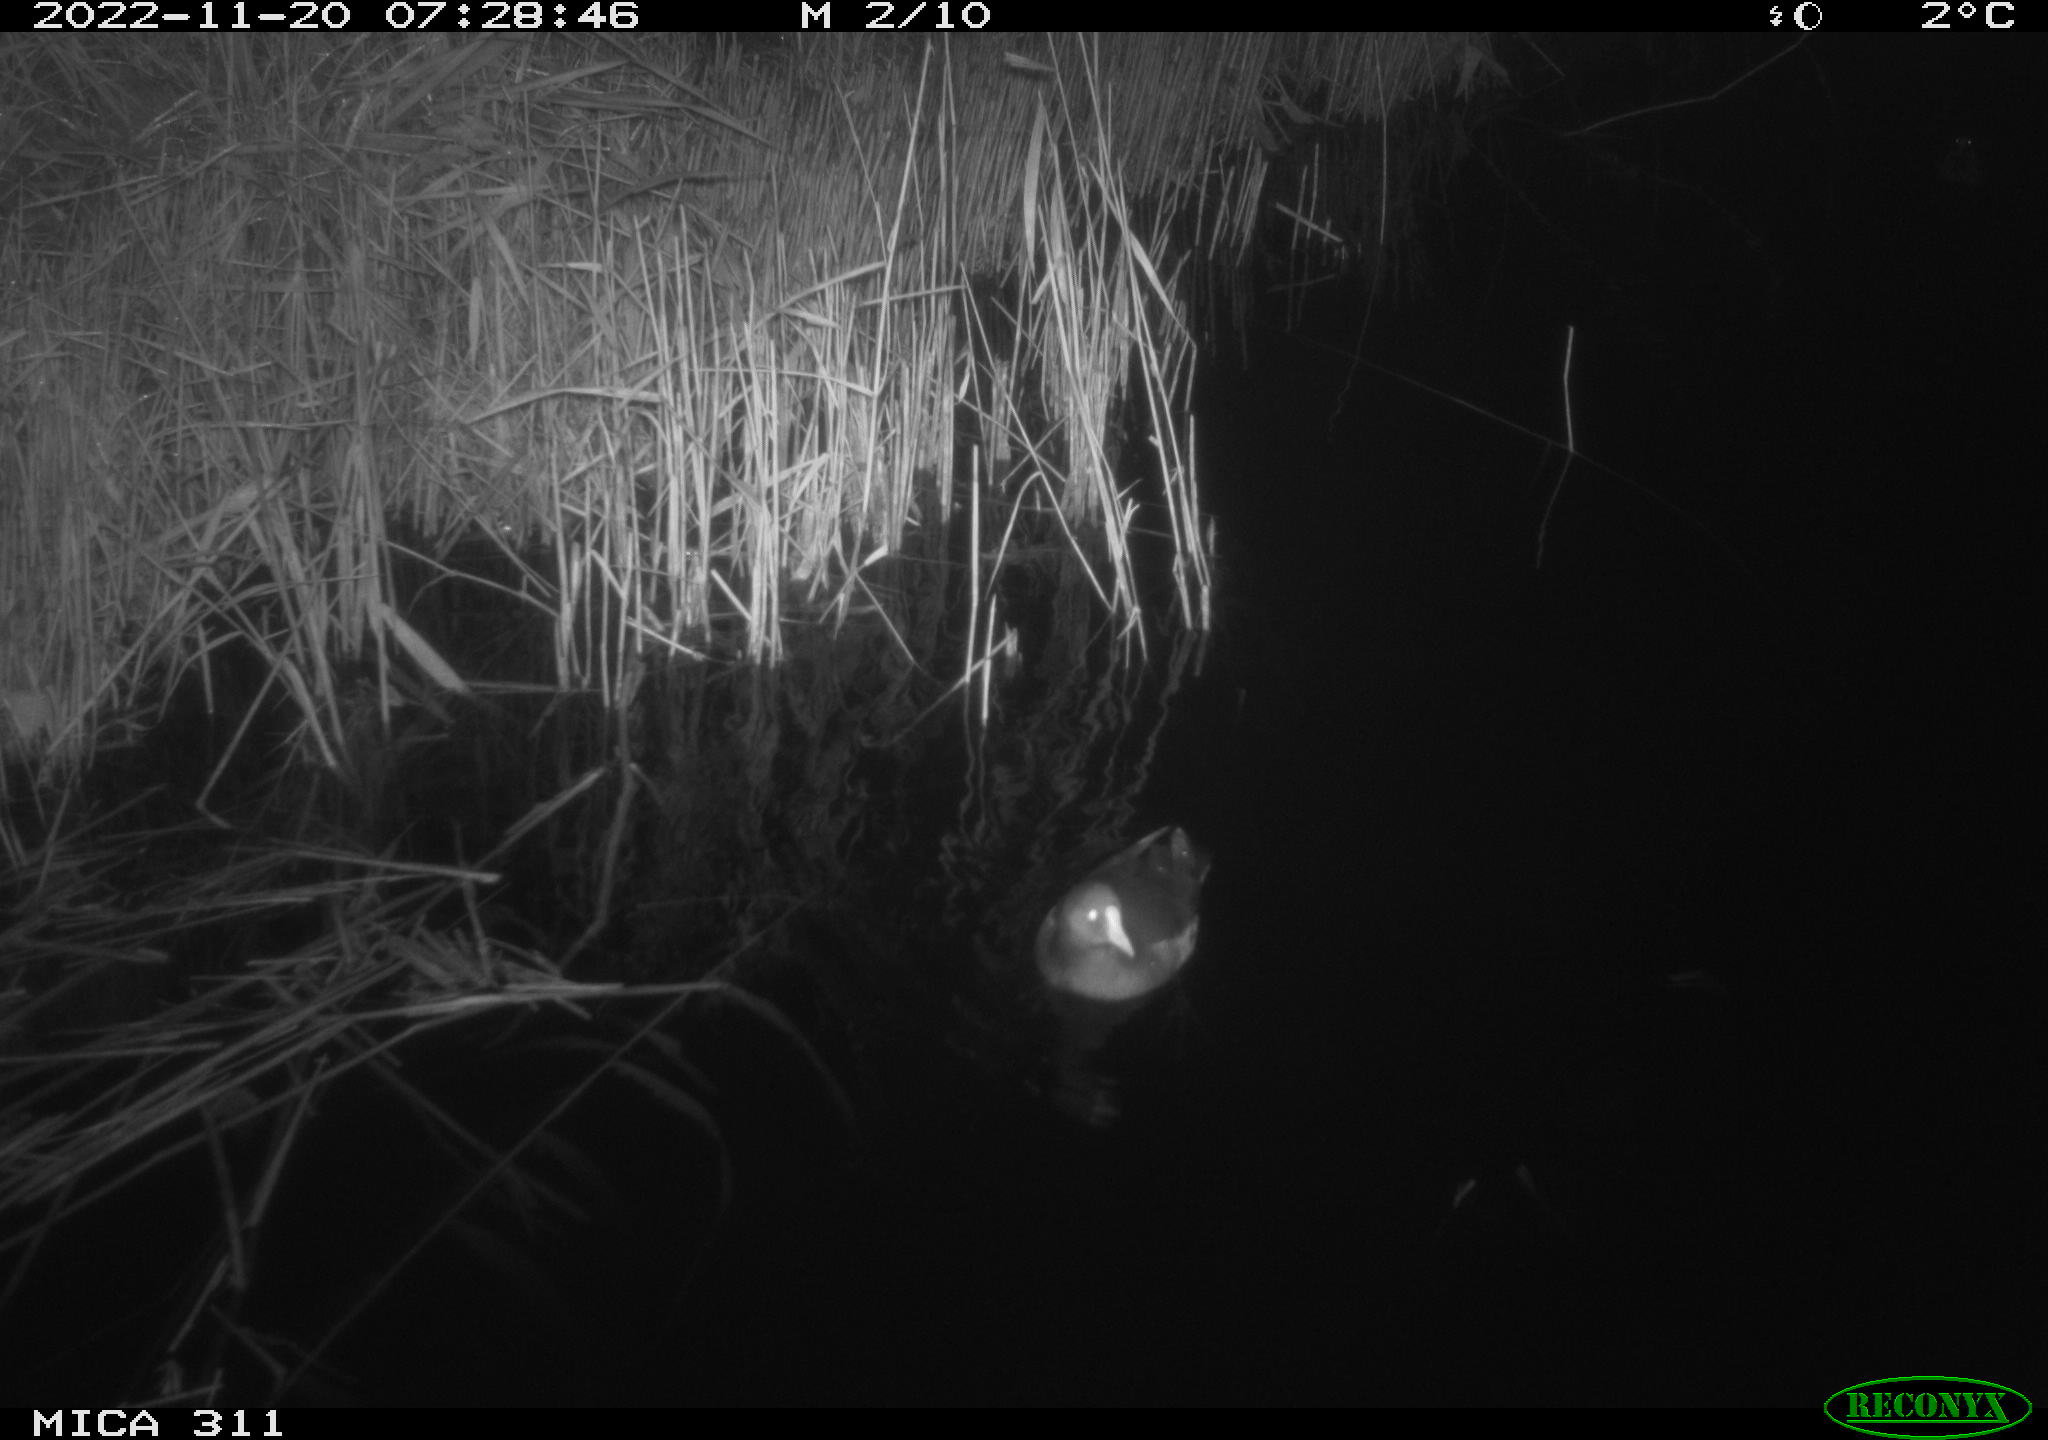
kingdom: Animalia
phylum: Chordata
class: Aves
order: Gruiformes
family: Rallidae
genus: Gallinula
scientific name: Gallinula chloropus
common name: Common moorhen
